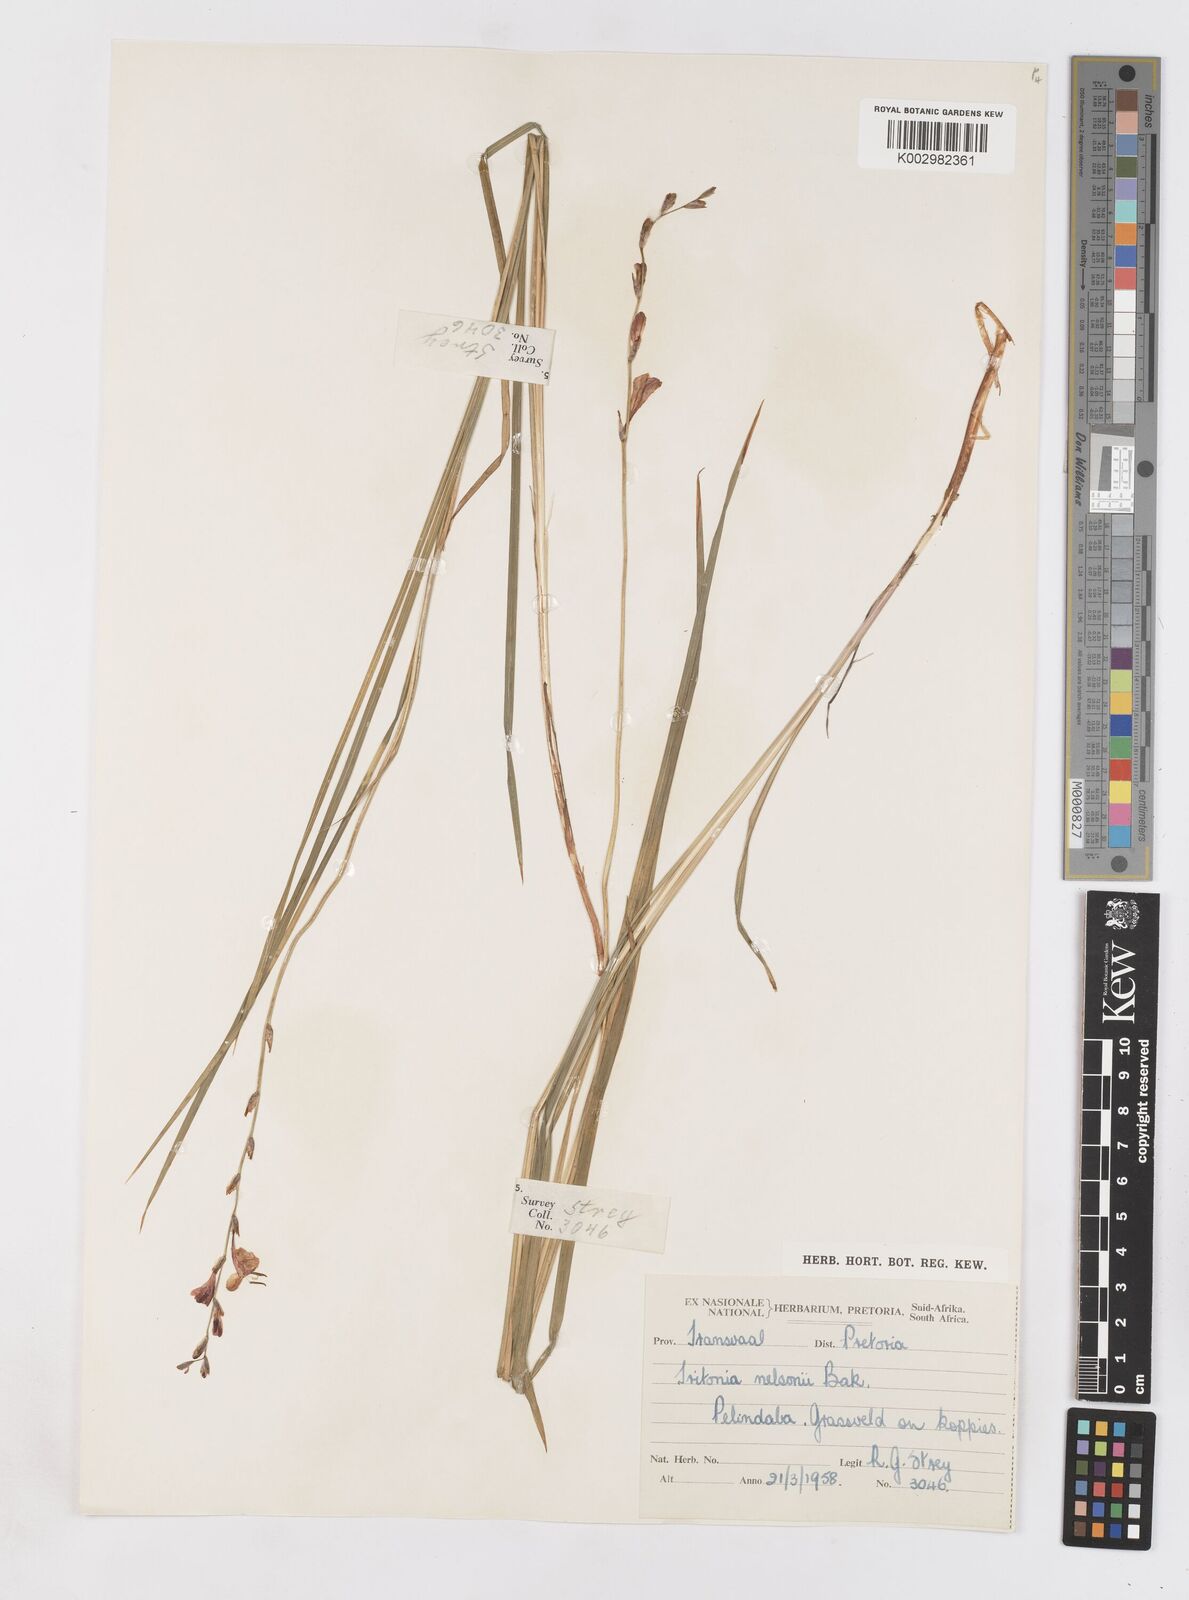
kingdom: Plantae
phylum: Tracheophyta
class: Liliopsida
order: Asparagales
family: Iridaceae
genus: Tritonia
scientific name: Tritonia nelsonii
